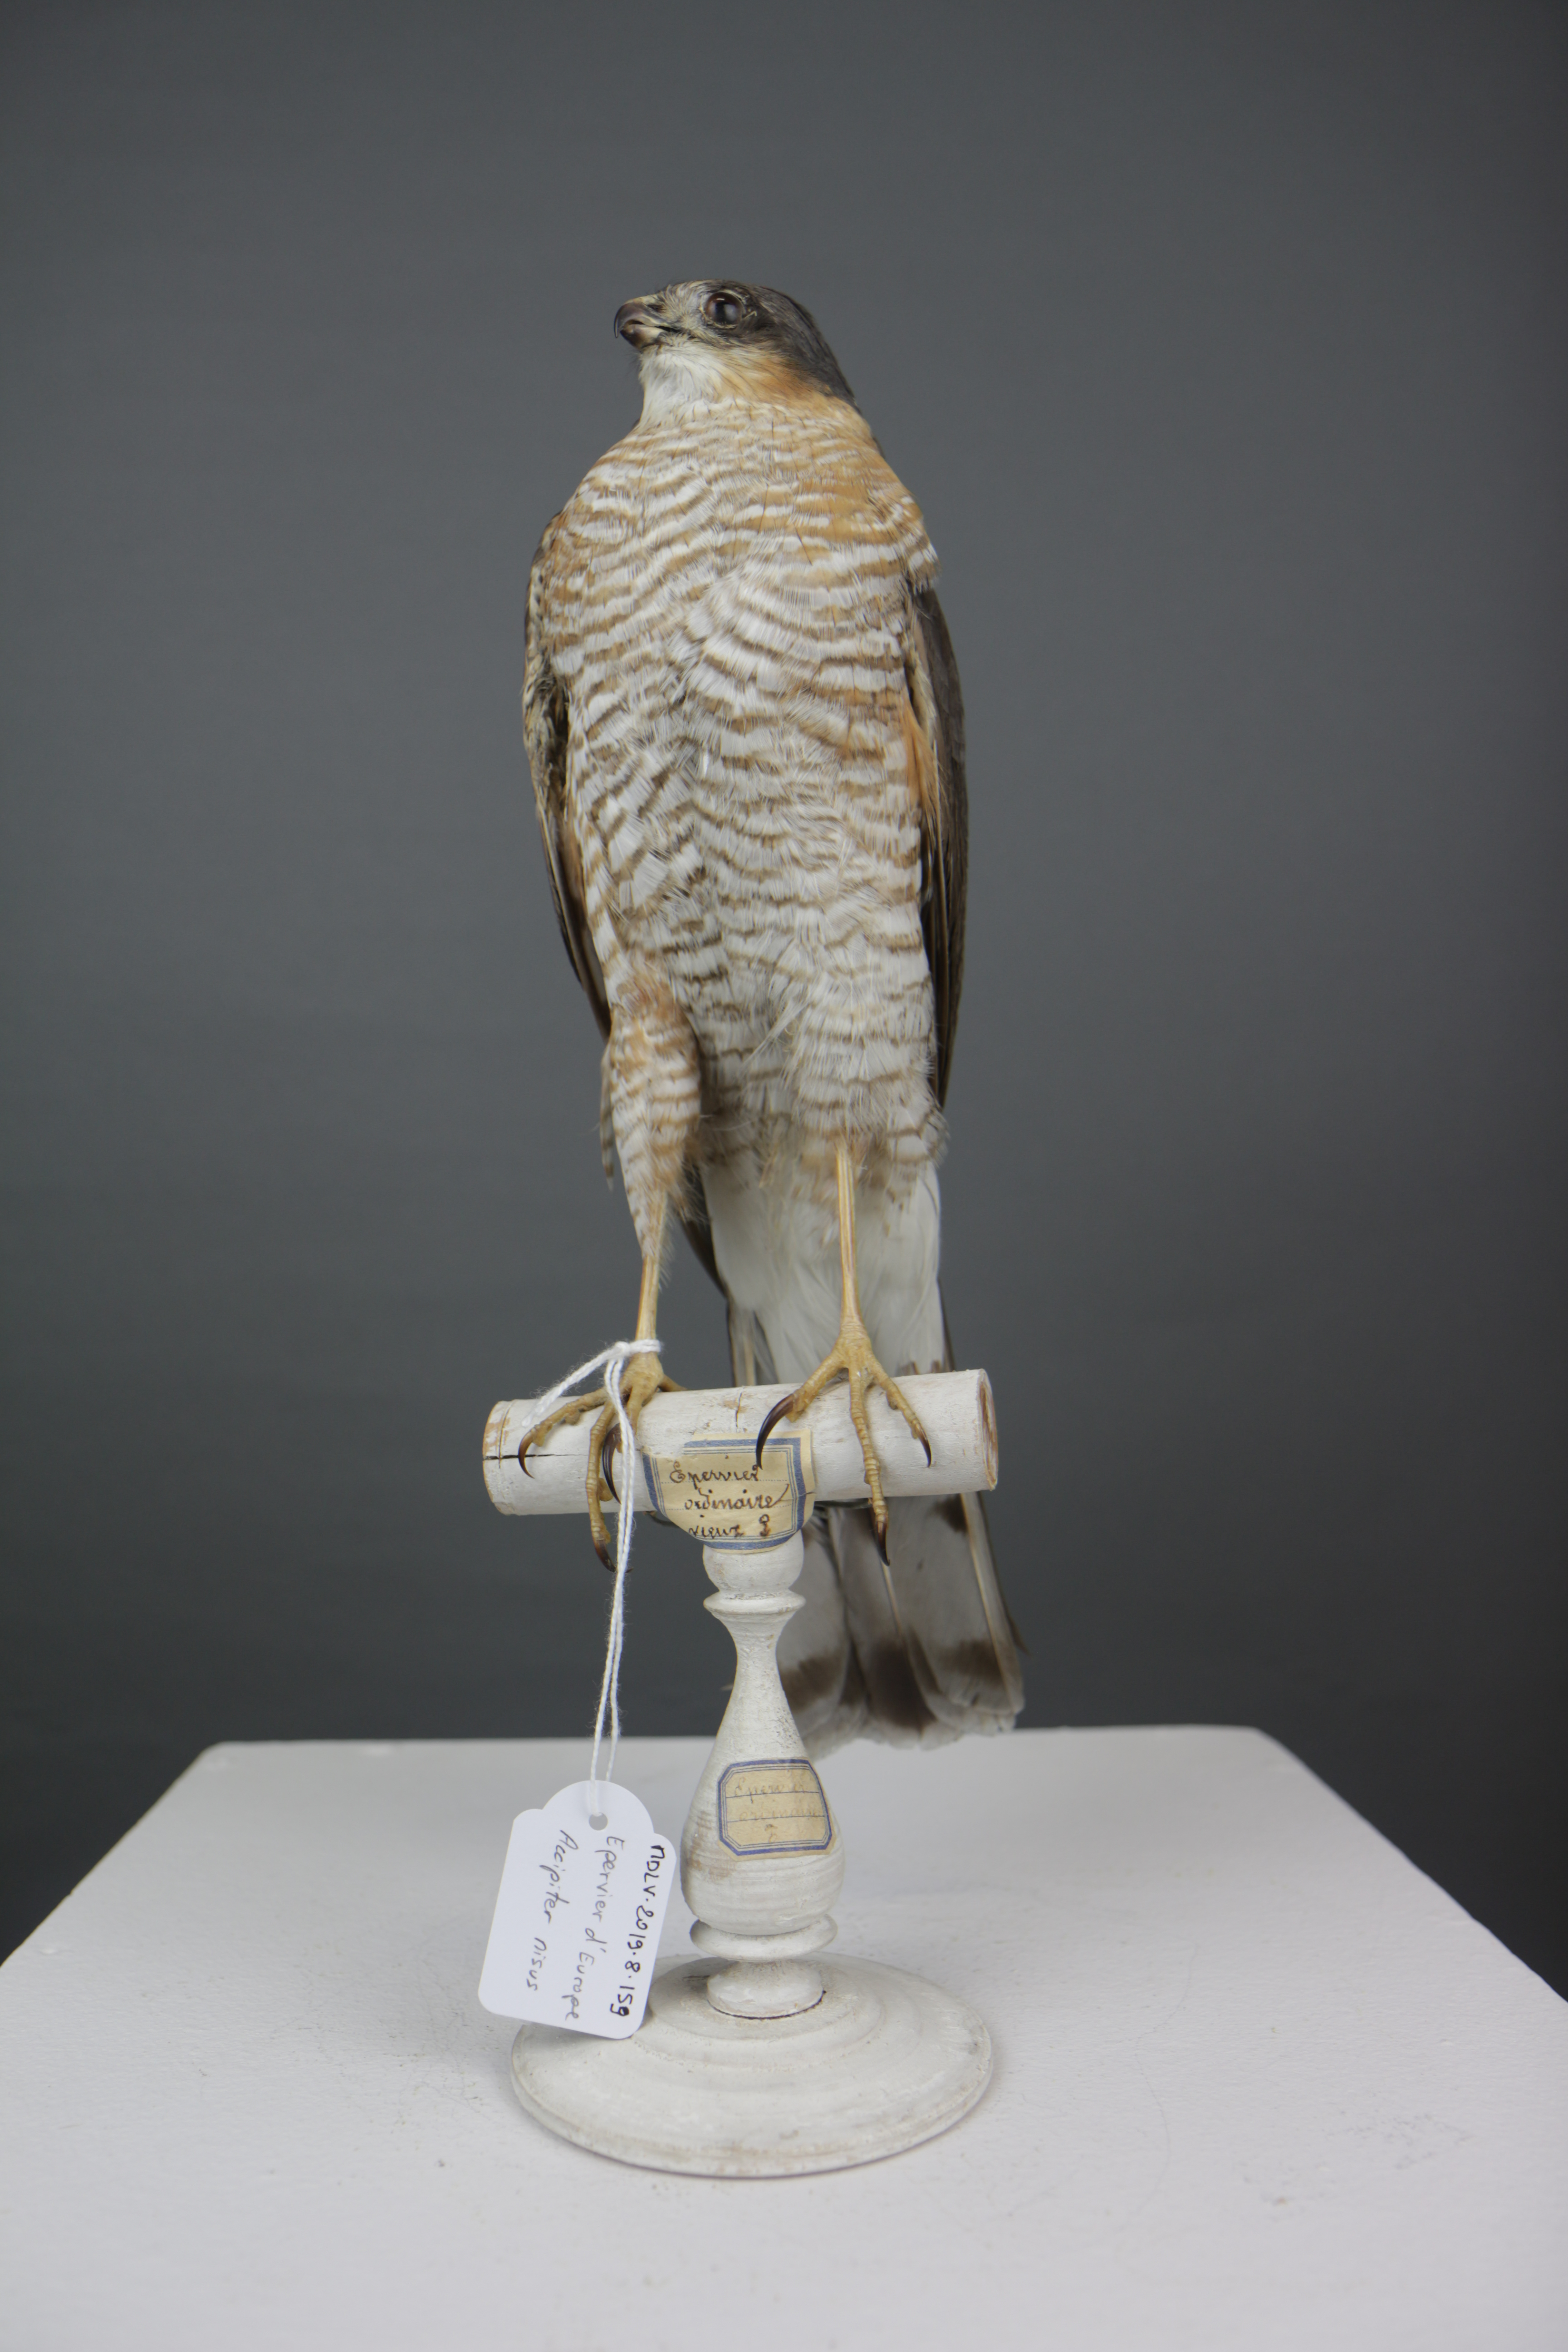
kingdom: Animalia
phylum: Chordata
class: Aves
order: Accipitriformes
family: Accipitridae
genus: Accipiter
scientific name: Accipiter nisus
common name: Eurasian sparrowhawk
